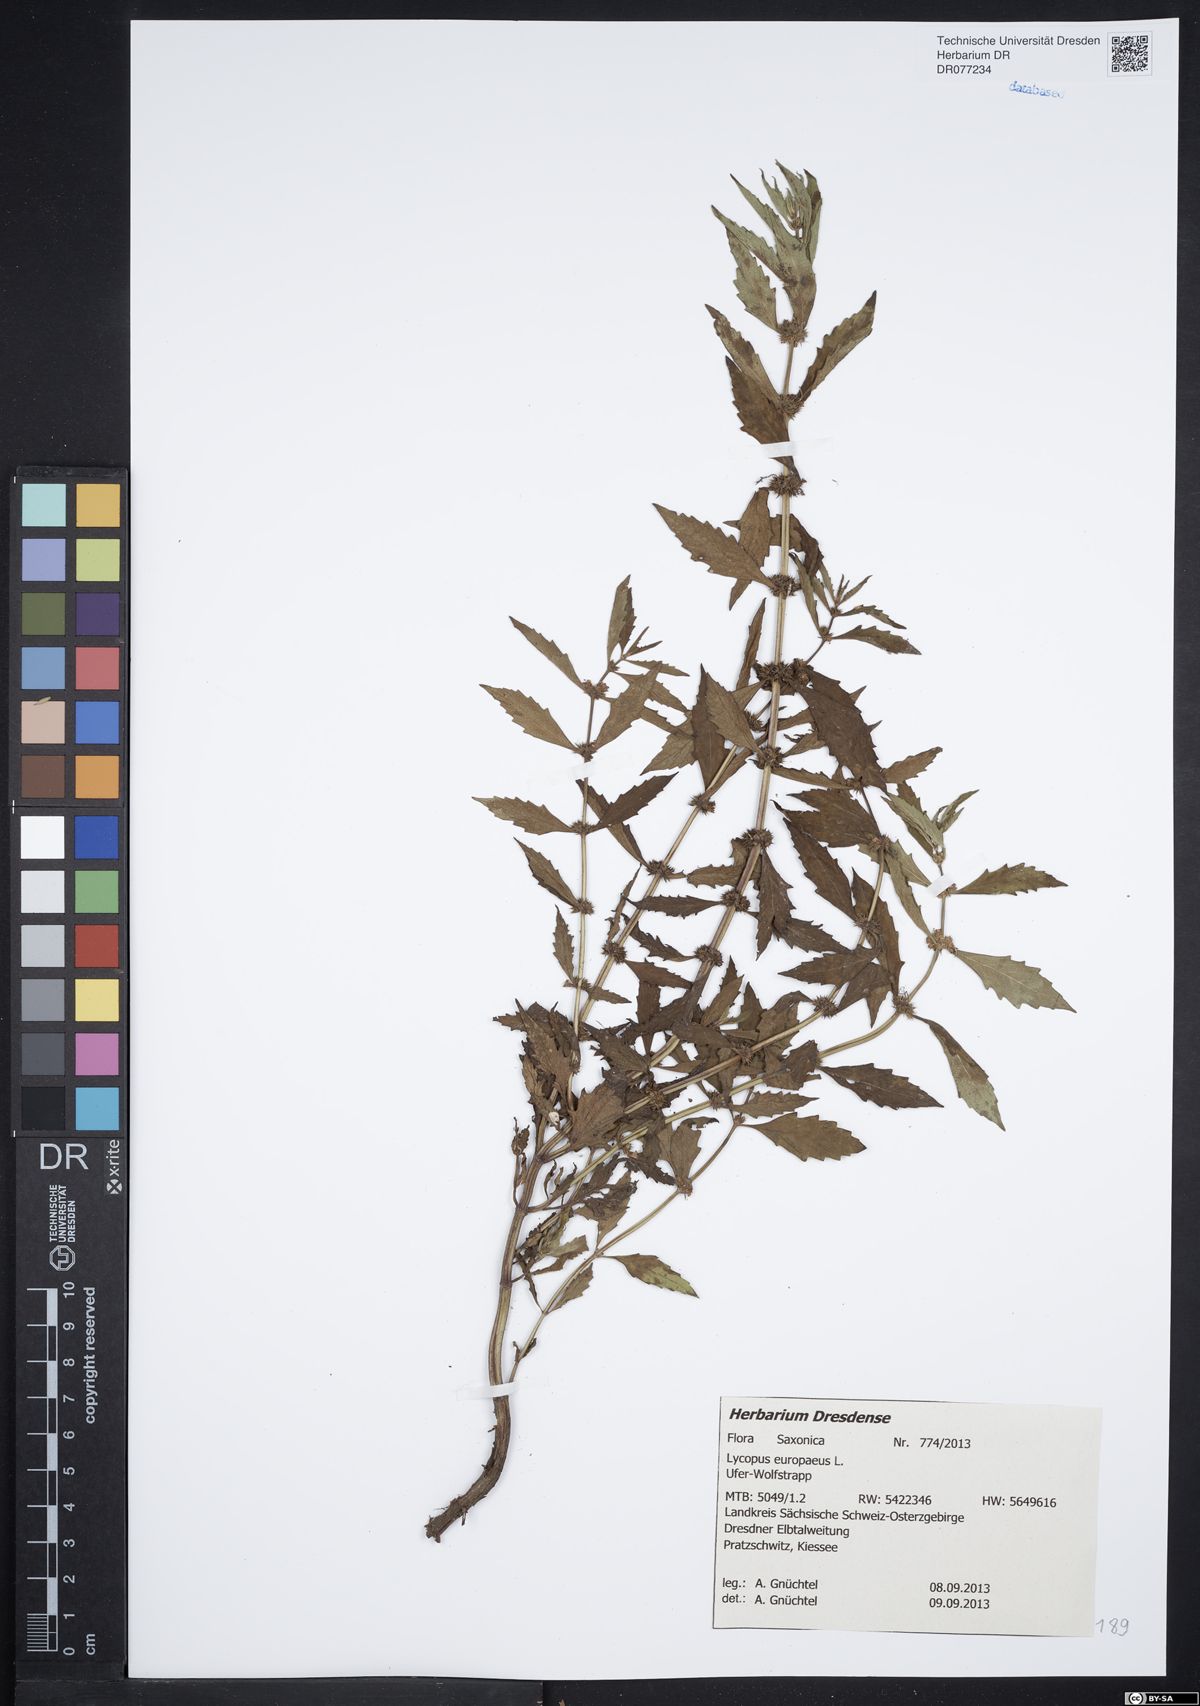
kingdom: Plantae
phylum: Tracheophyta
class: Magnoliopsida
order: Lamiales
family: Lamiaceae
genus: Lycopus
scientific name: Lycopus europaeus
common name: European bugleweed
